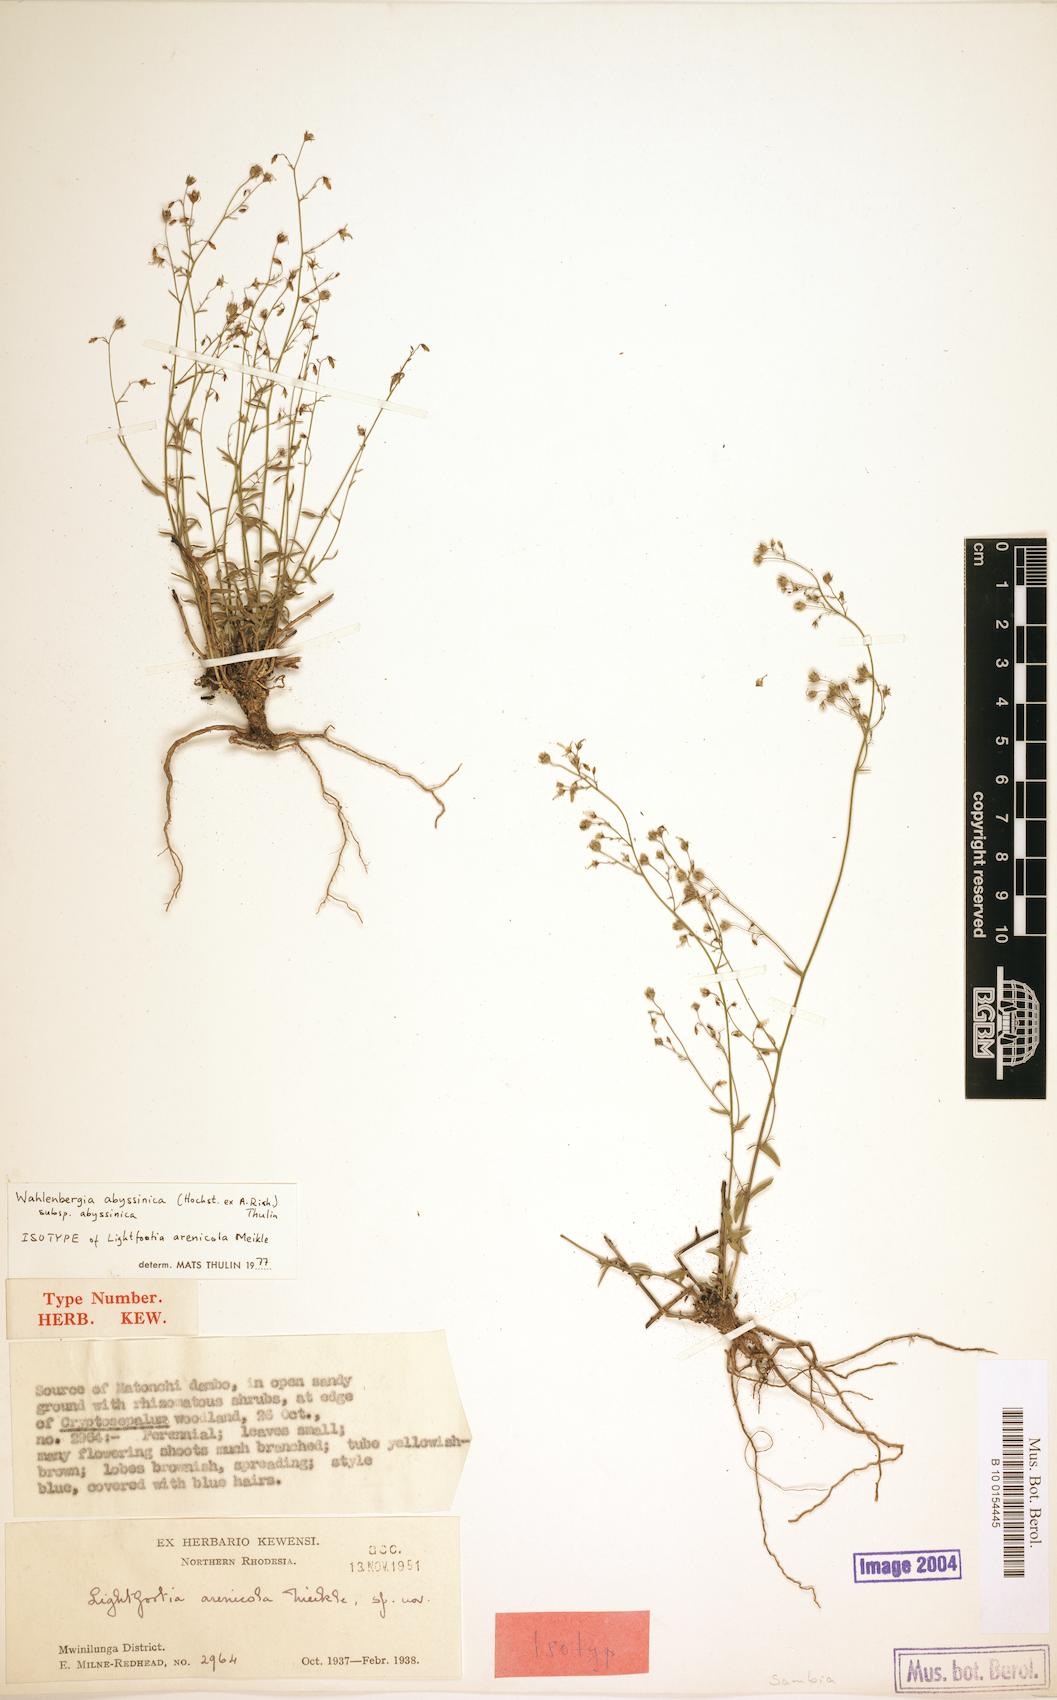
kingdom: Plantae
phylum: Tracheophyta
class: Magnoliopsida
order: Asterales
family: Campanulaceae
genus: Wahlenbergia
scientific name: Wahlenbergia abyssinica
